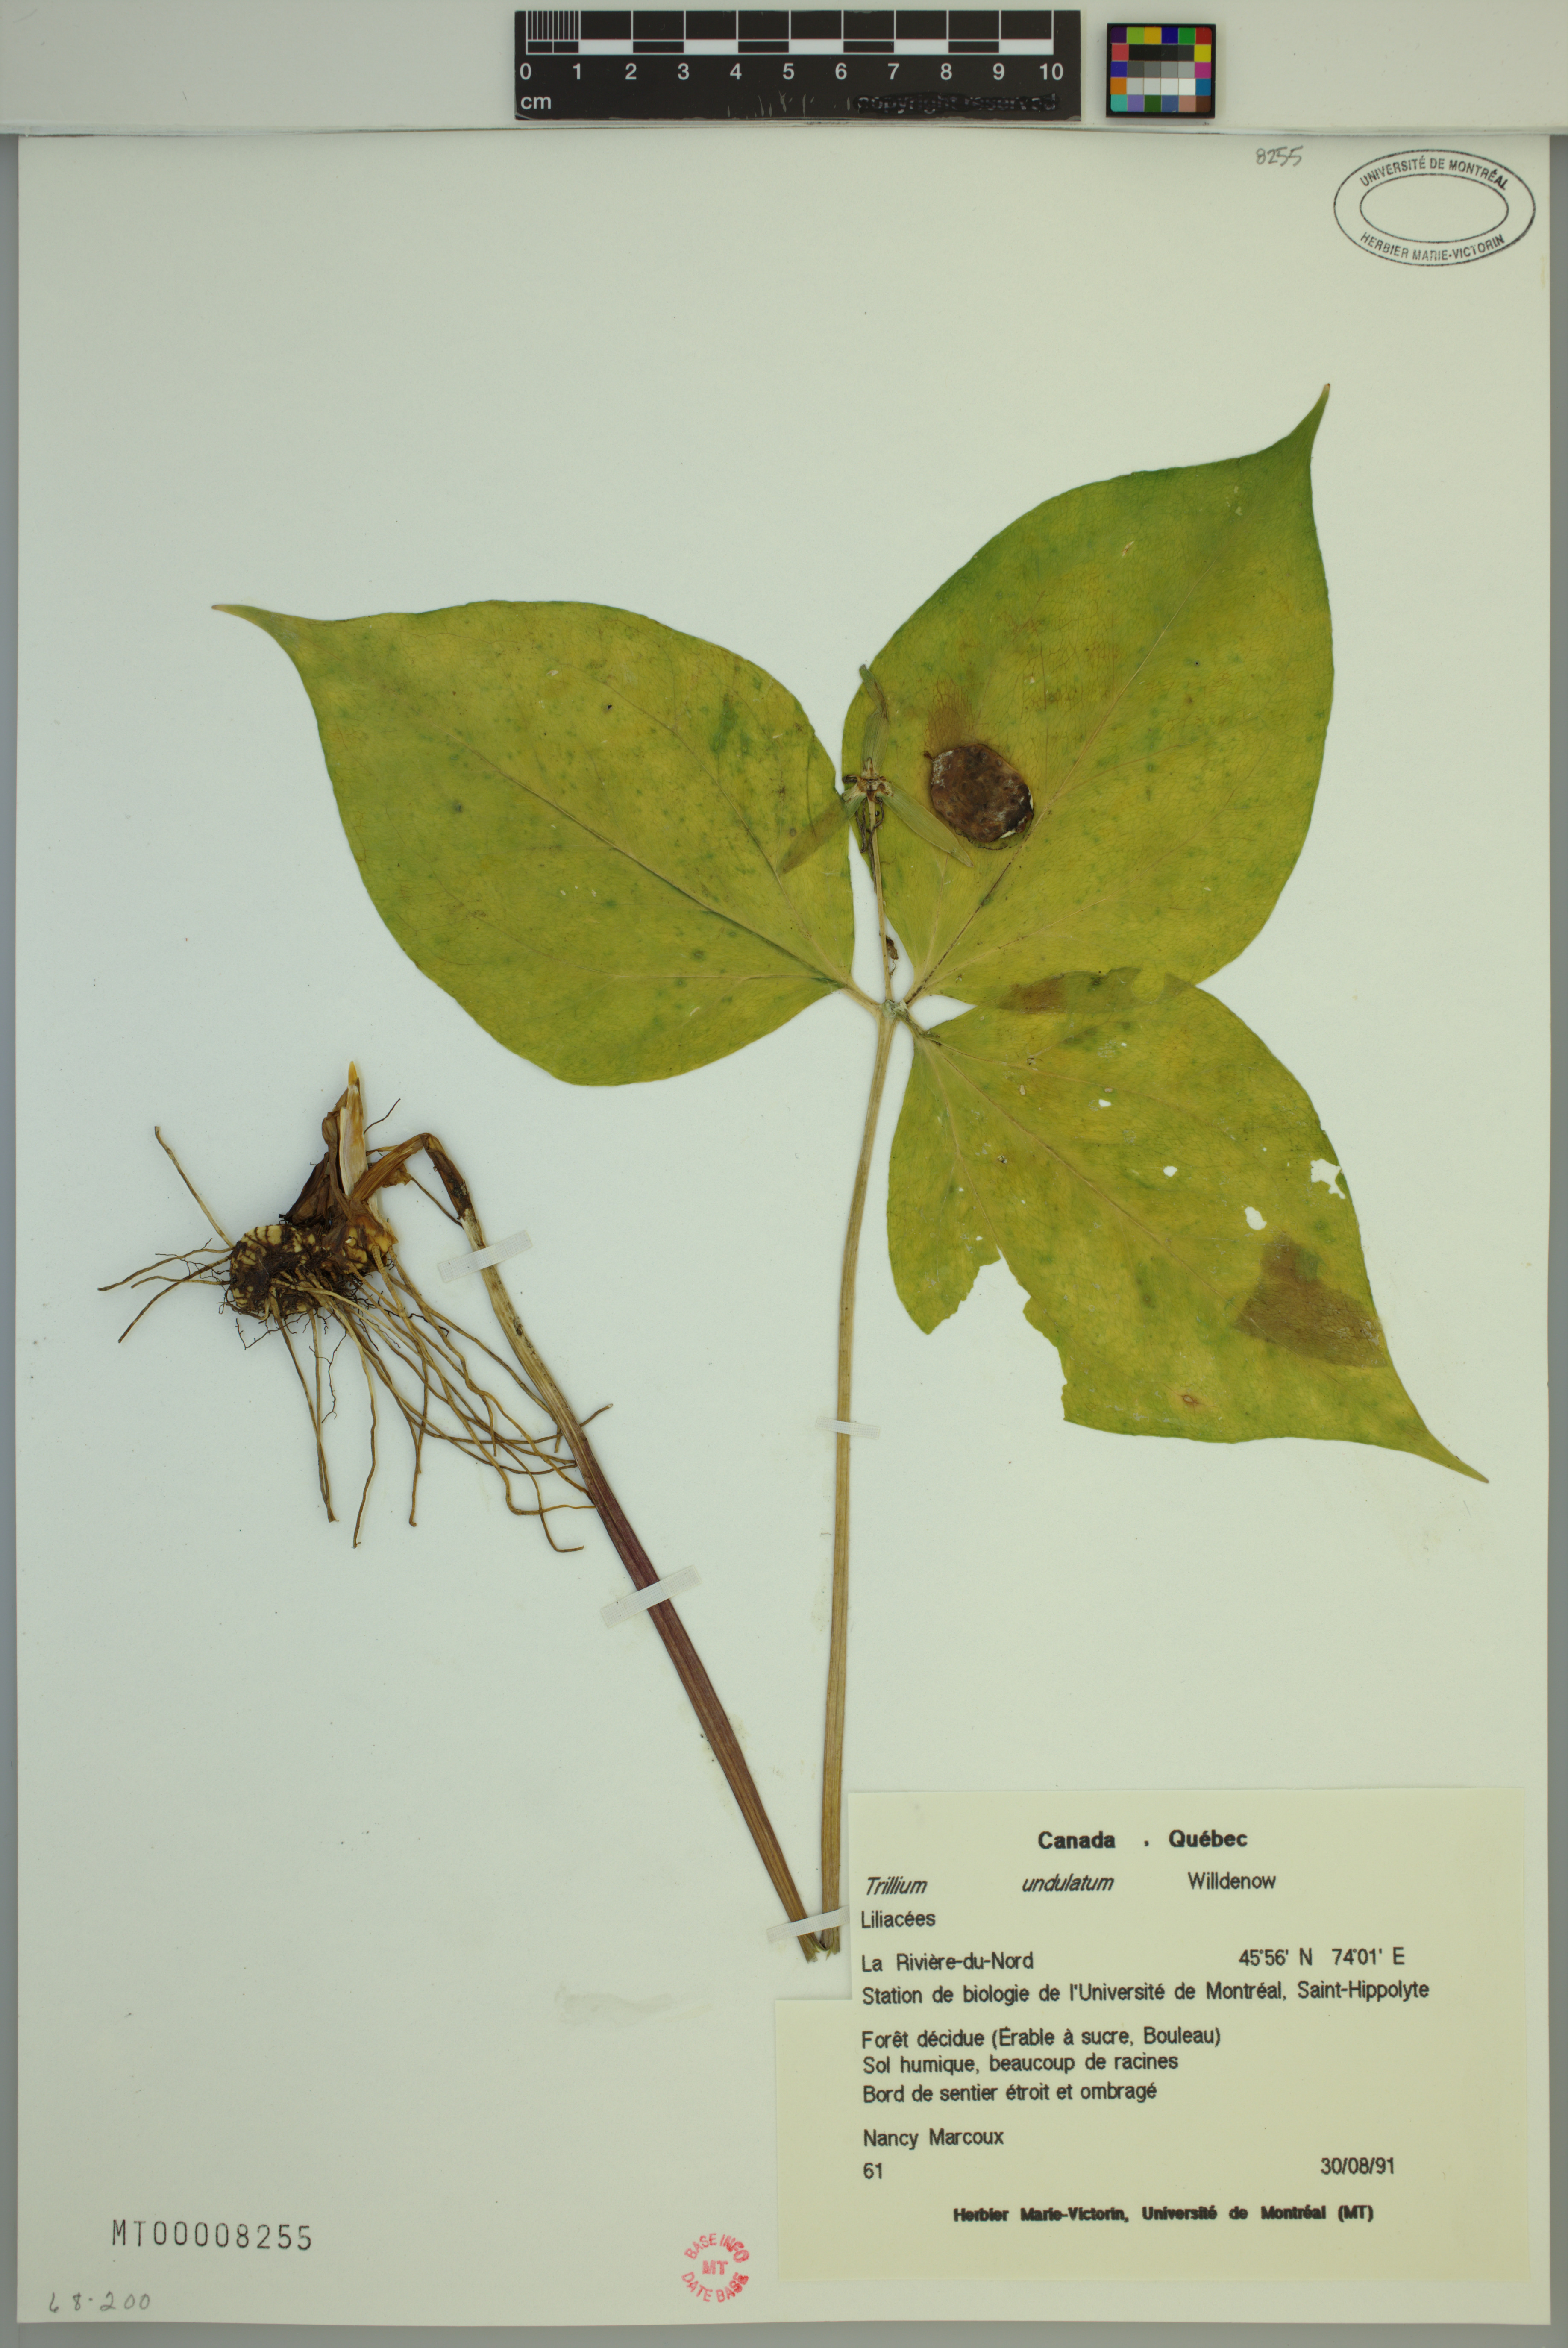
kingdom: Plantae
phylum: Tracheophyta
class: Liliopsida
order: Liliales
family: Melanthiaceae
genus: Trillium
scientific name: Trillium undulatum
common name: Paint trillium
